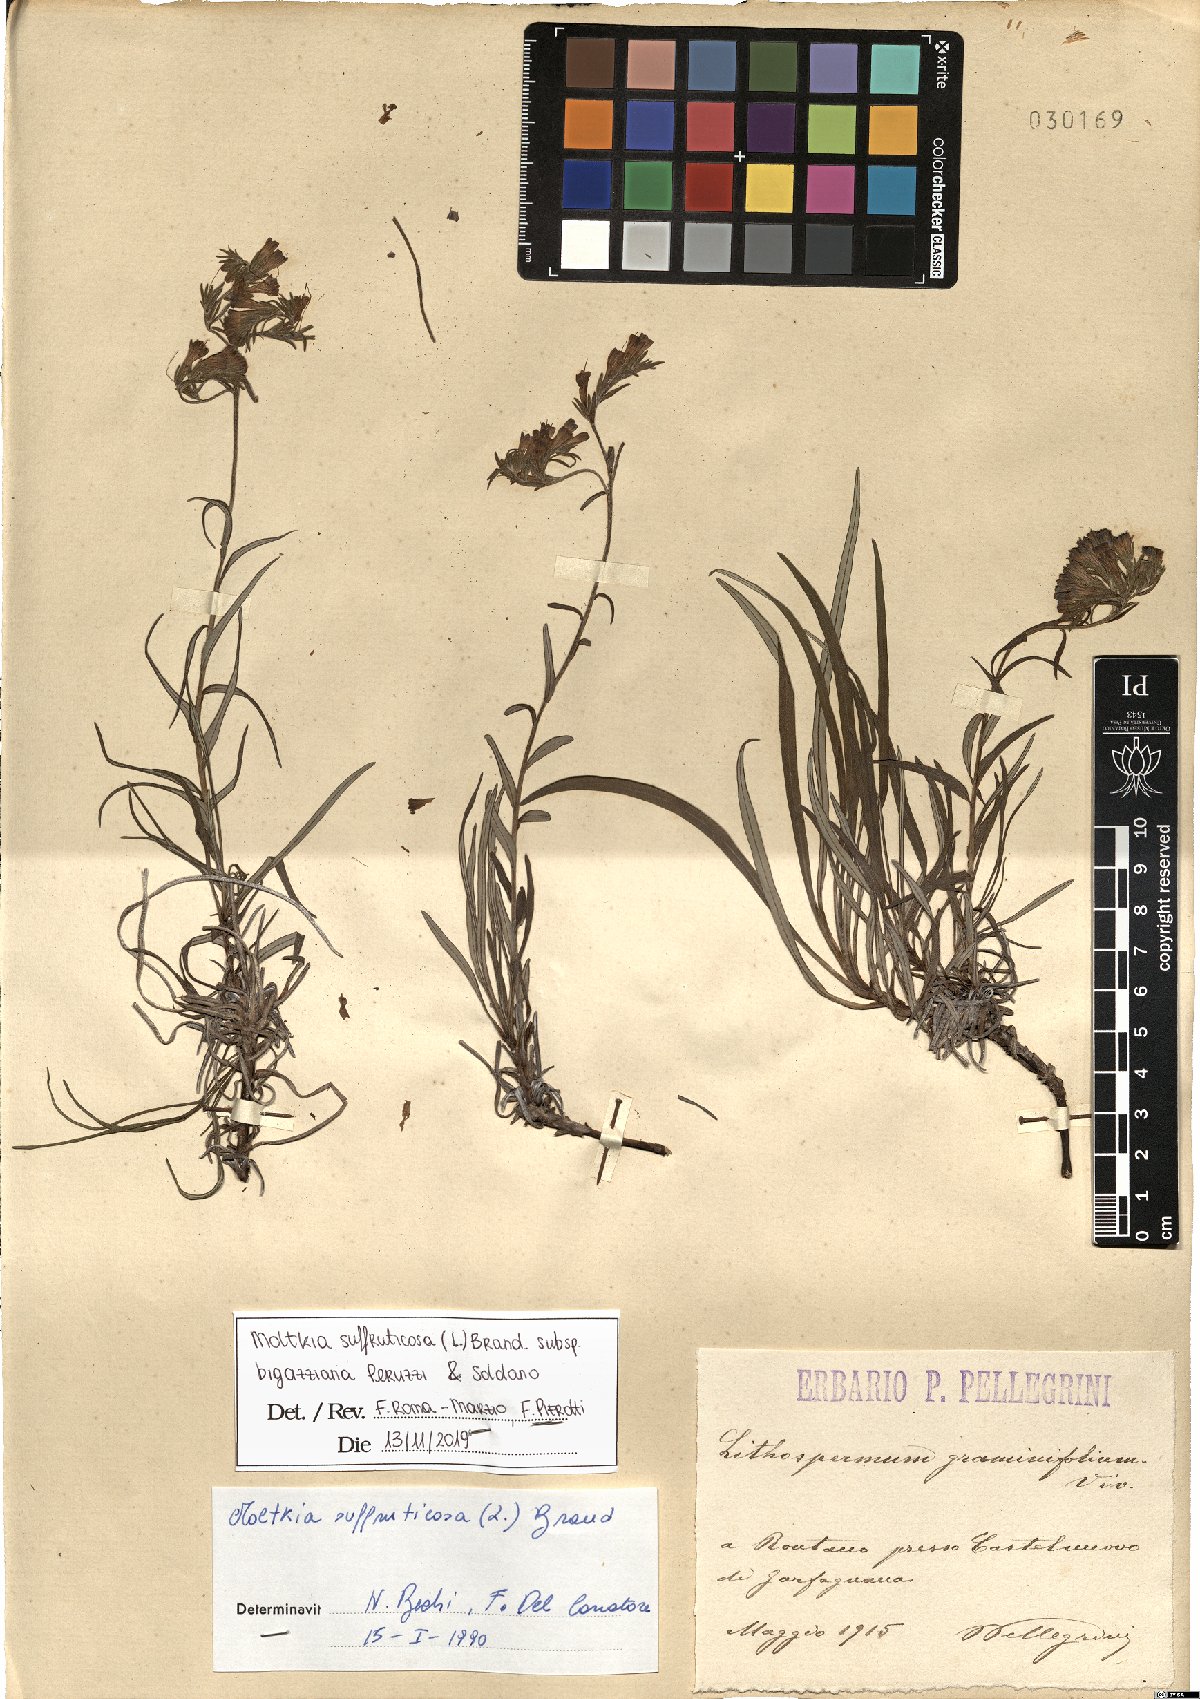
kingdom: Plantae
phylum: Tracheophyta
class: Magnoliopsida
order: Boraginales
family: Boraginaceae
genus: Moltkia
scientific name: Moltkia suffruticosa
